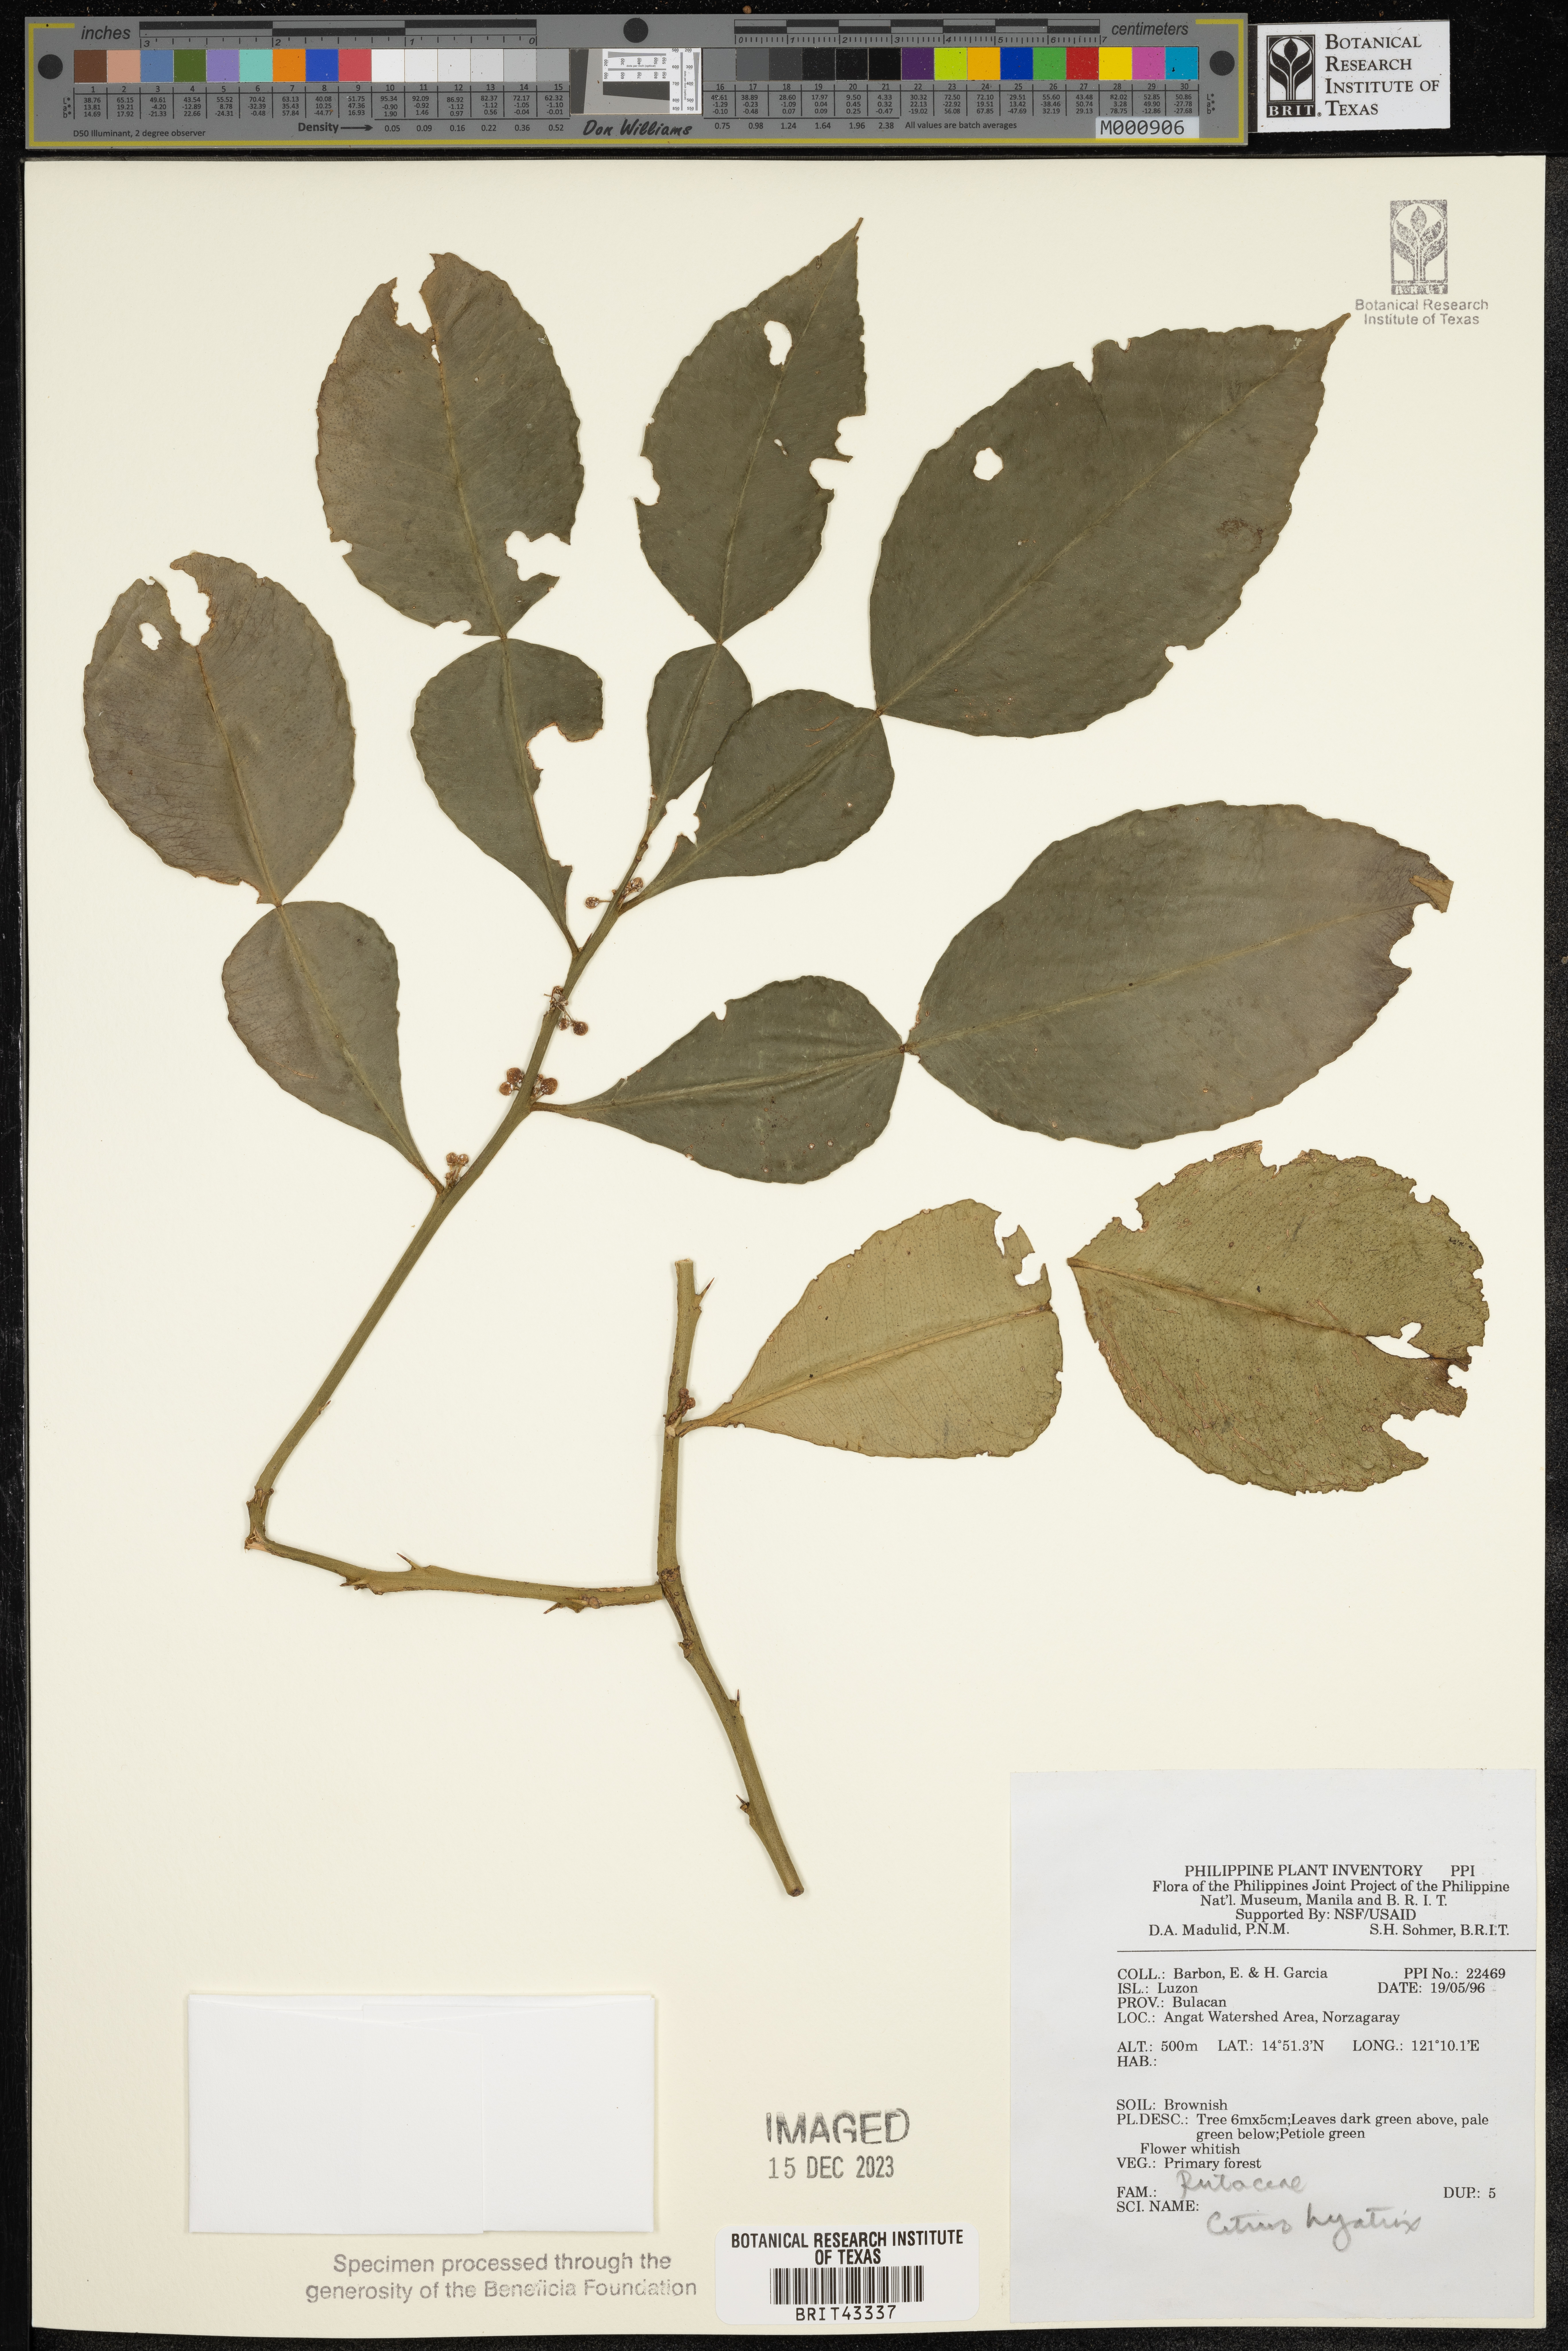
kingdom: Plantae
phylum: Tracheophyta
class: Magnoliopsida
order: Sapindales
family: Rutaceae
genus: Citrus
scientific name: Citrus hystrix
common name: Kaffir-lime
